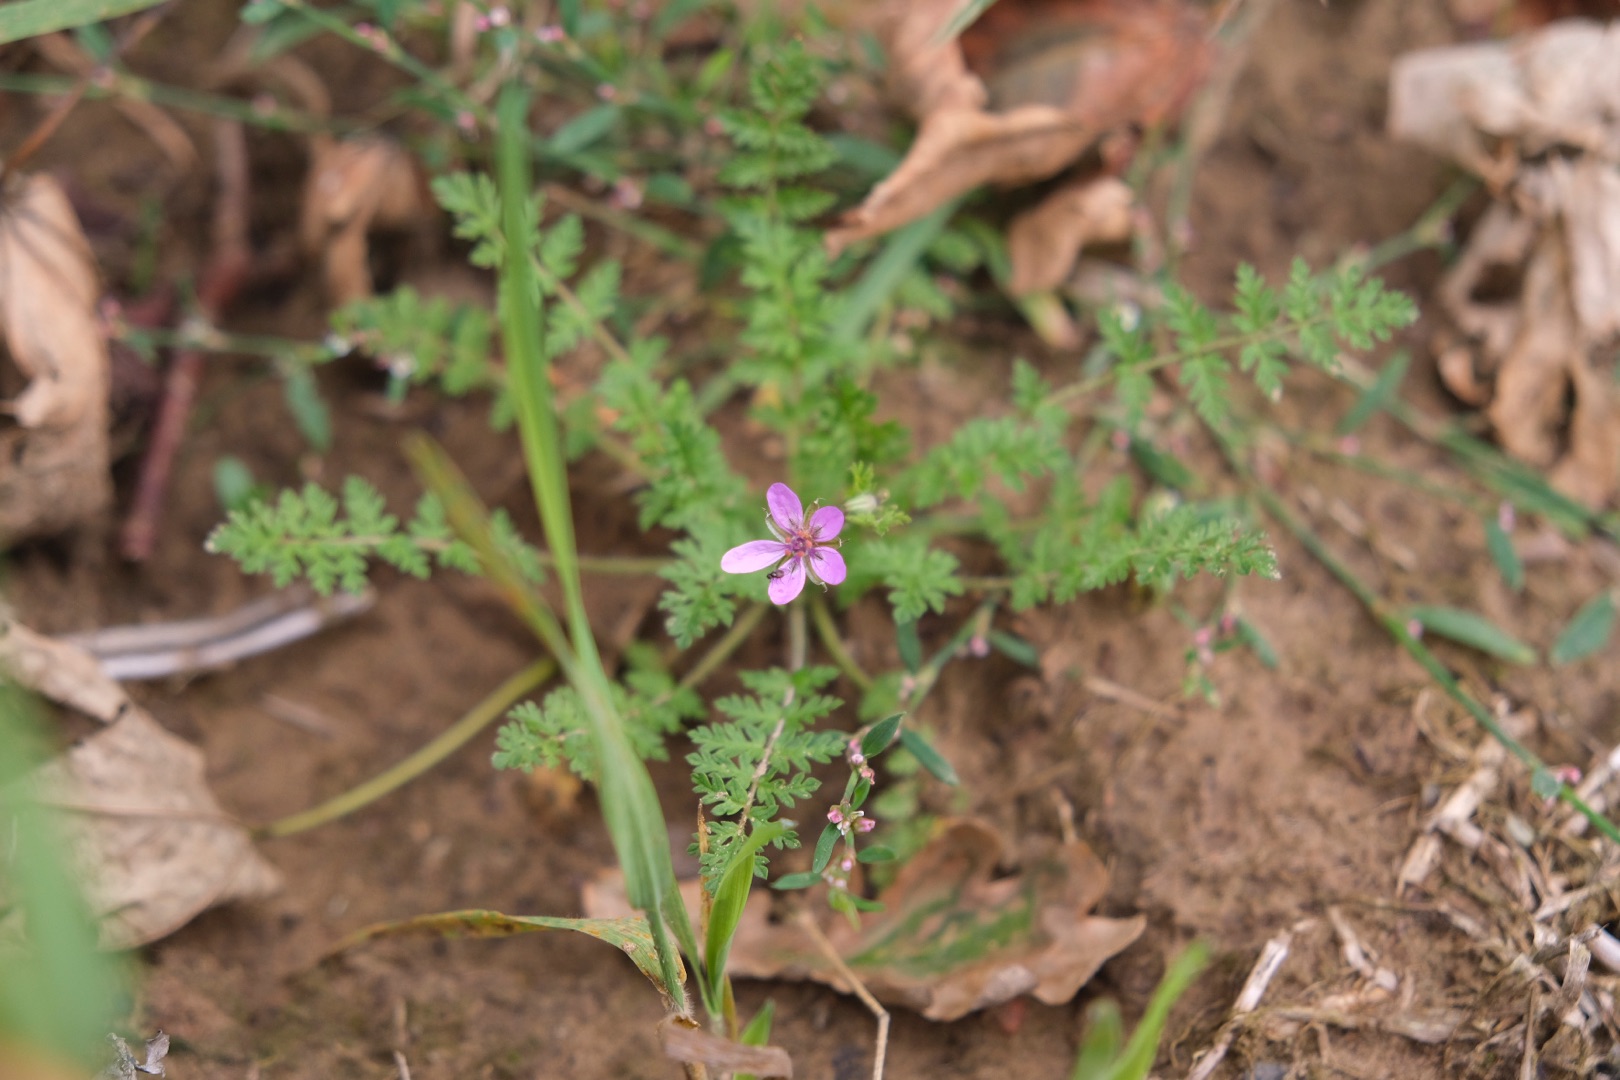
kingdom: Plantae
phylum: Tracheophyta
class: Magnoliopsida
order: Geraniales
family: Geraniaceae
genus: Erodium
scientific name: Erodium cicutarium
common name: Hejrenæb
